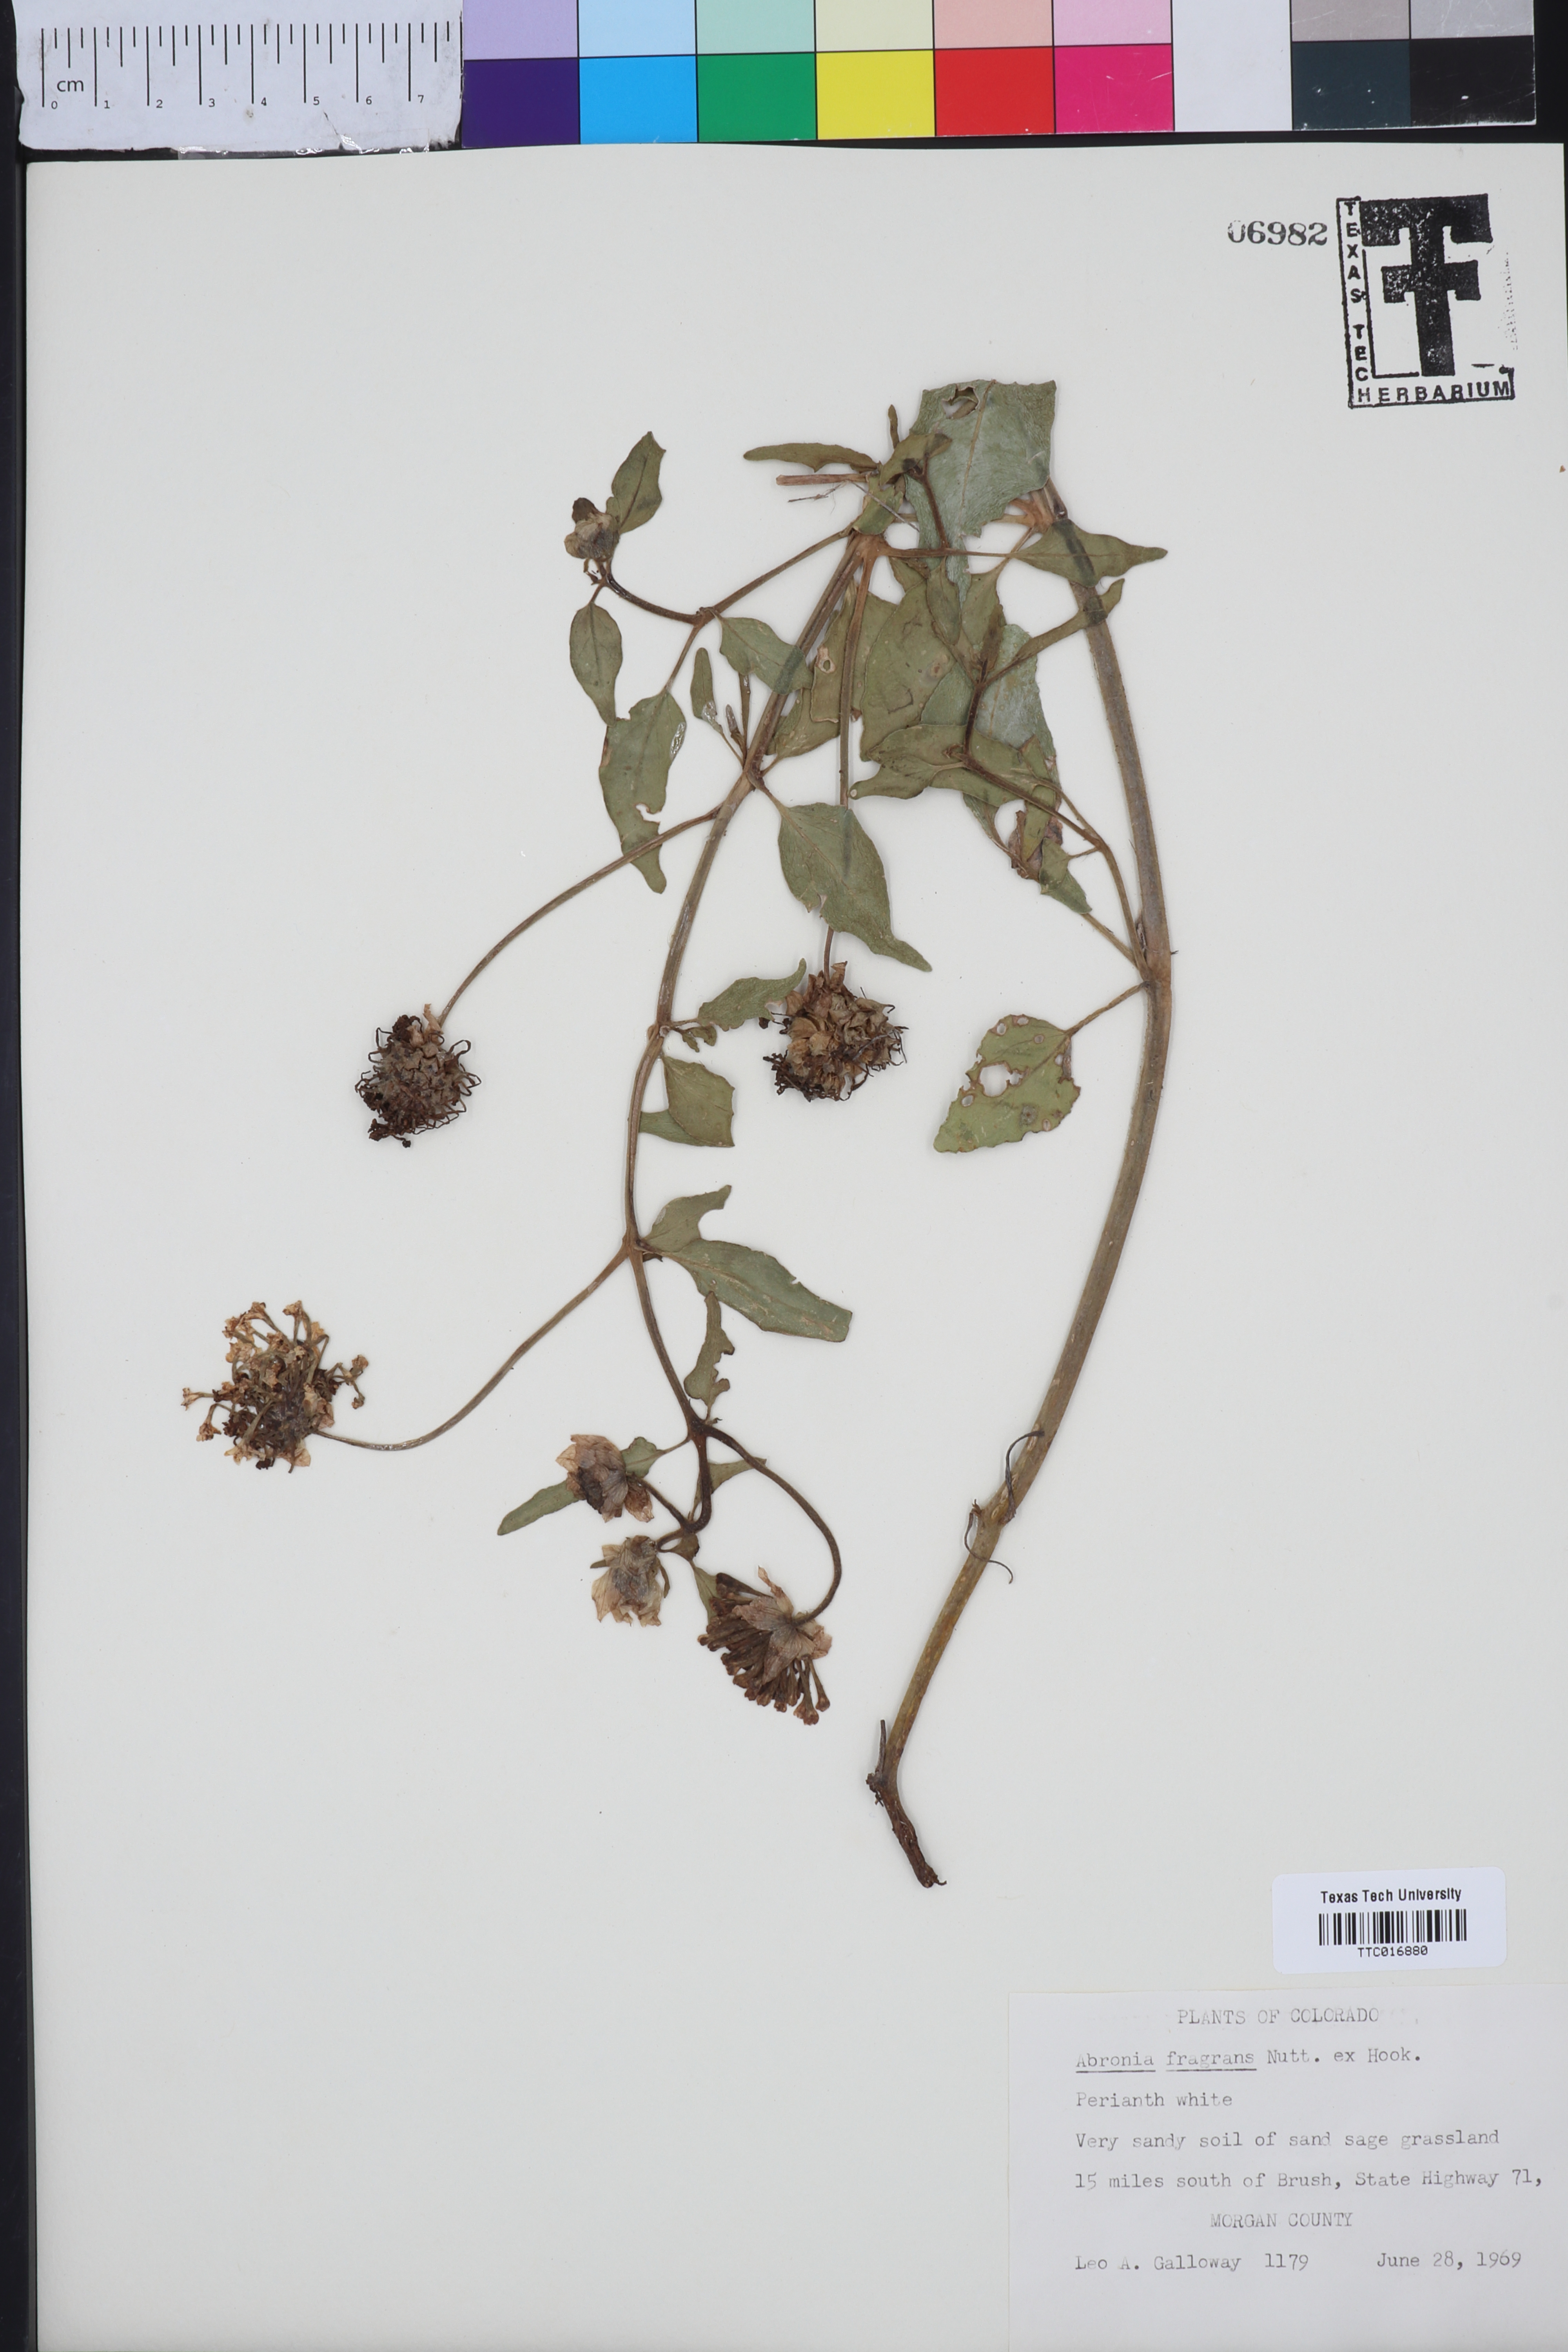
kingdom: Plantae
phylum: Tracheophyta
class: Magnoliopsida
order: Caryophyllales
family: Nyctaginaceae
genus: Abronia
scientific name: Abronia fragrans
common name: Fragrant sand-verbena
